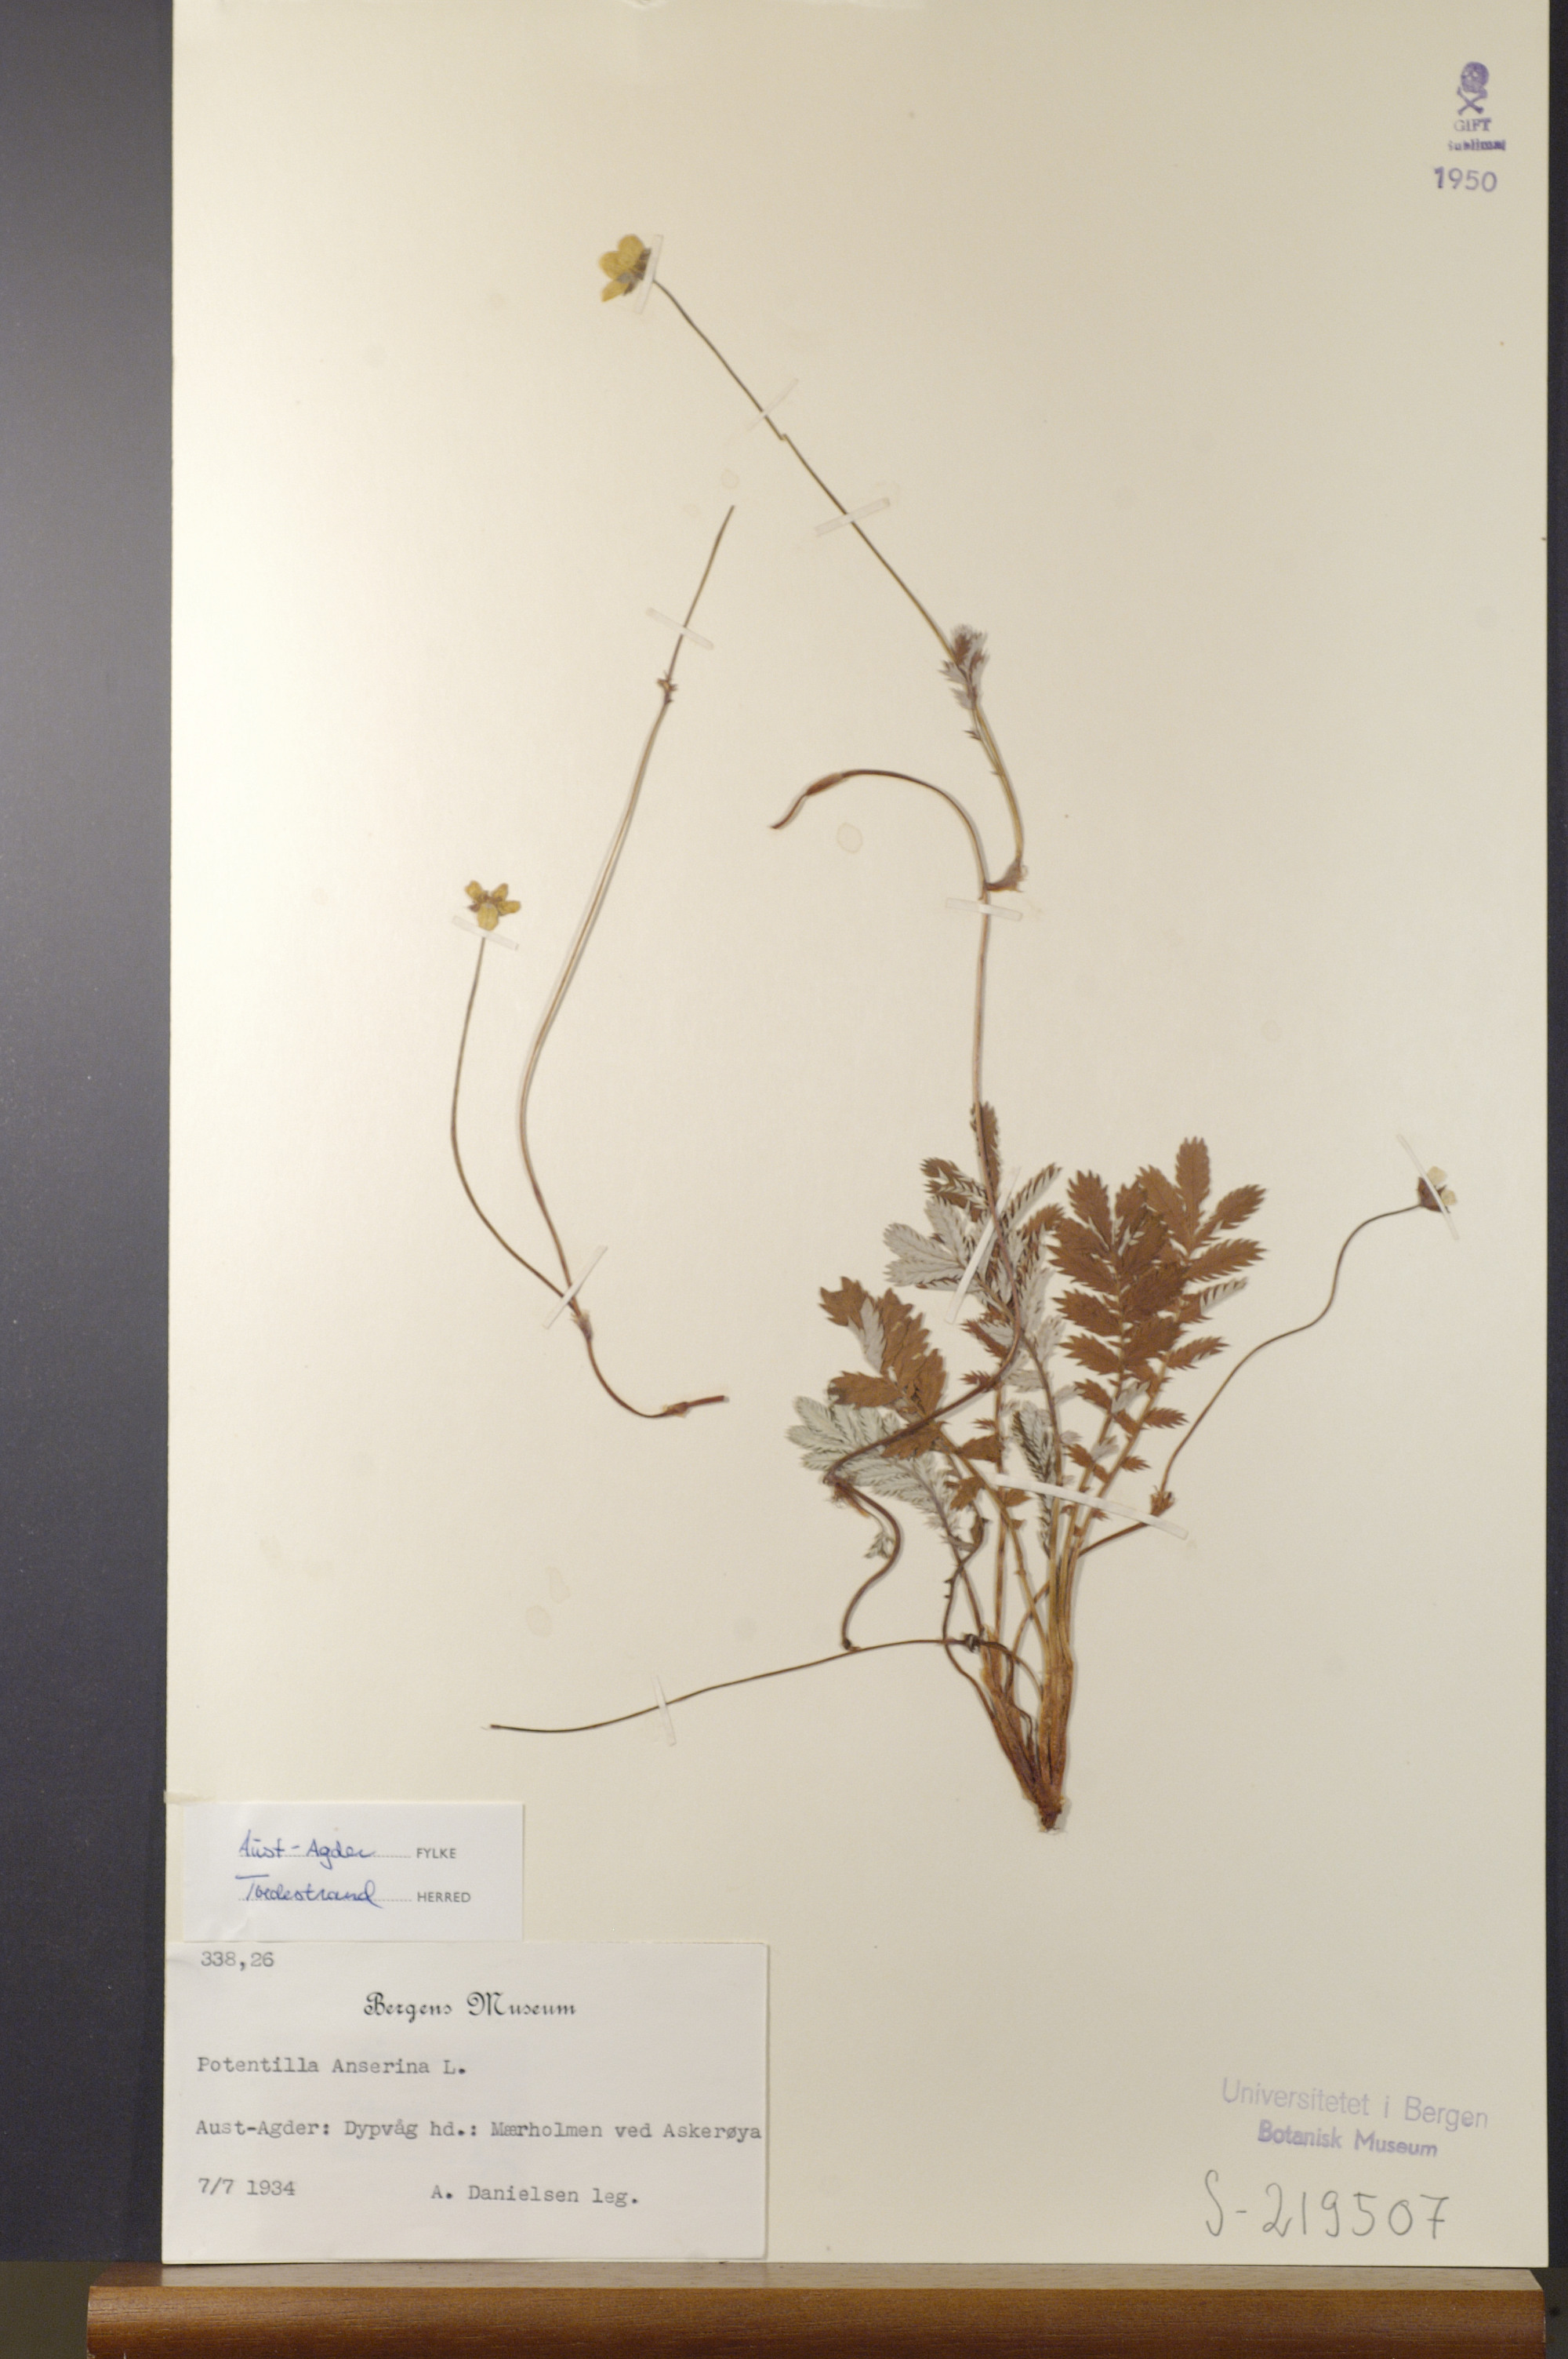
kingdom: Plantae
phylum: Tracheophyta
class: Magnoliopsida
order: Rosales
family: Rosaceae
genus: Argentina
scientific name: Argentina anserina
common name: Common silverweed
